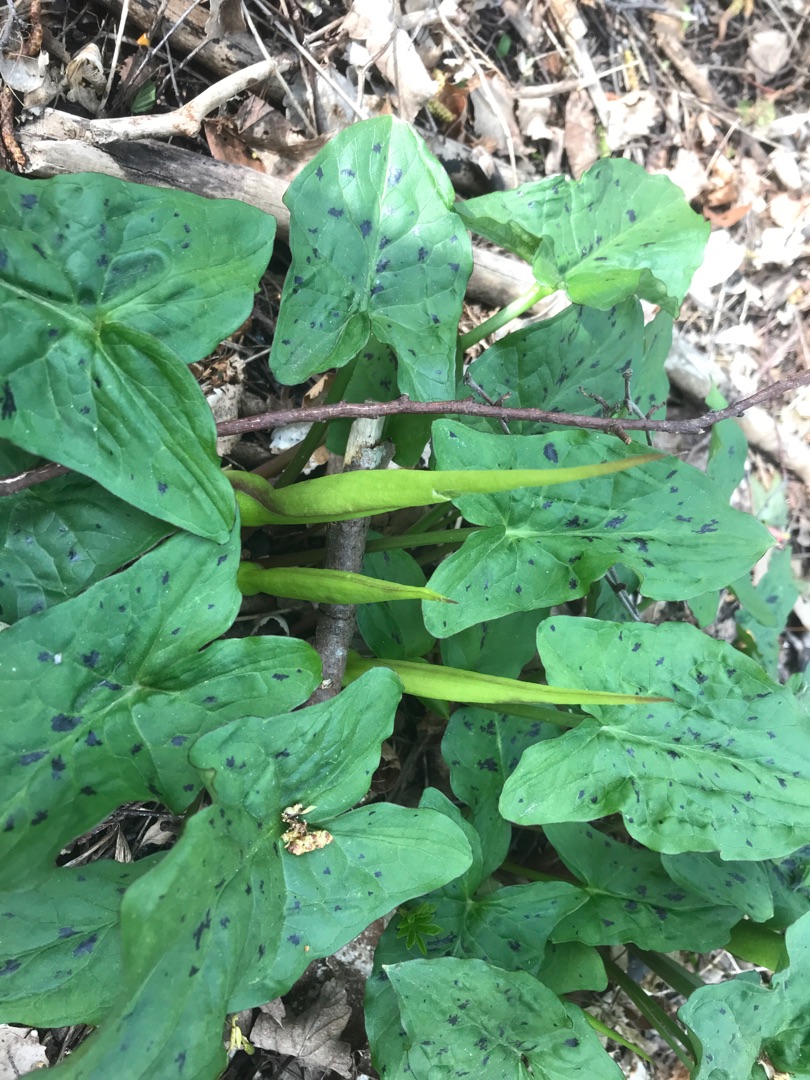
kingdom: Plantae
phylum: Tracheophyta
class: Liliopsida
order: Alismatales
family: Araceae
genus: Arum
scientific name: Arum maculatum
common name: Plettet arum
